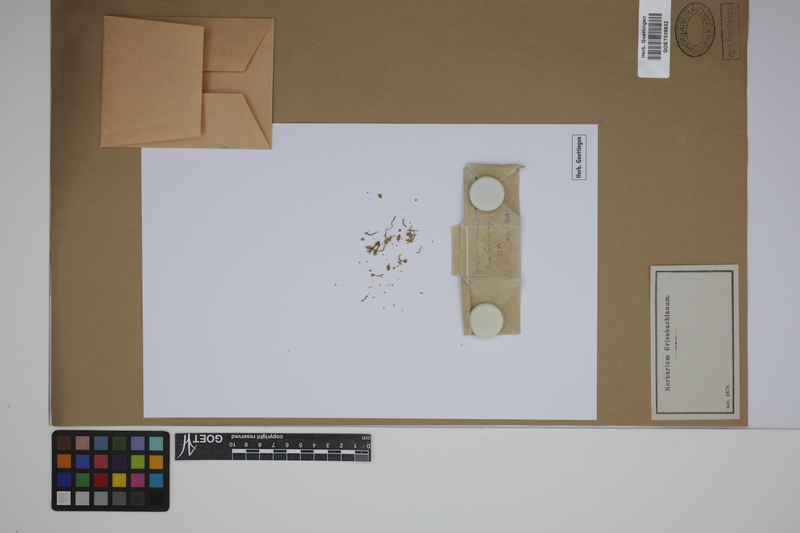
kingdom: Plantae
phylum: Tracheophyta
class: Lycopodiopsida
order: Lycopodiales
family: Lycopodiaceae
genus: Phylloglossum
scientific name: Phylloglossum drummondii
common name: Pigmy-club-moss
